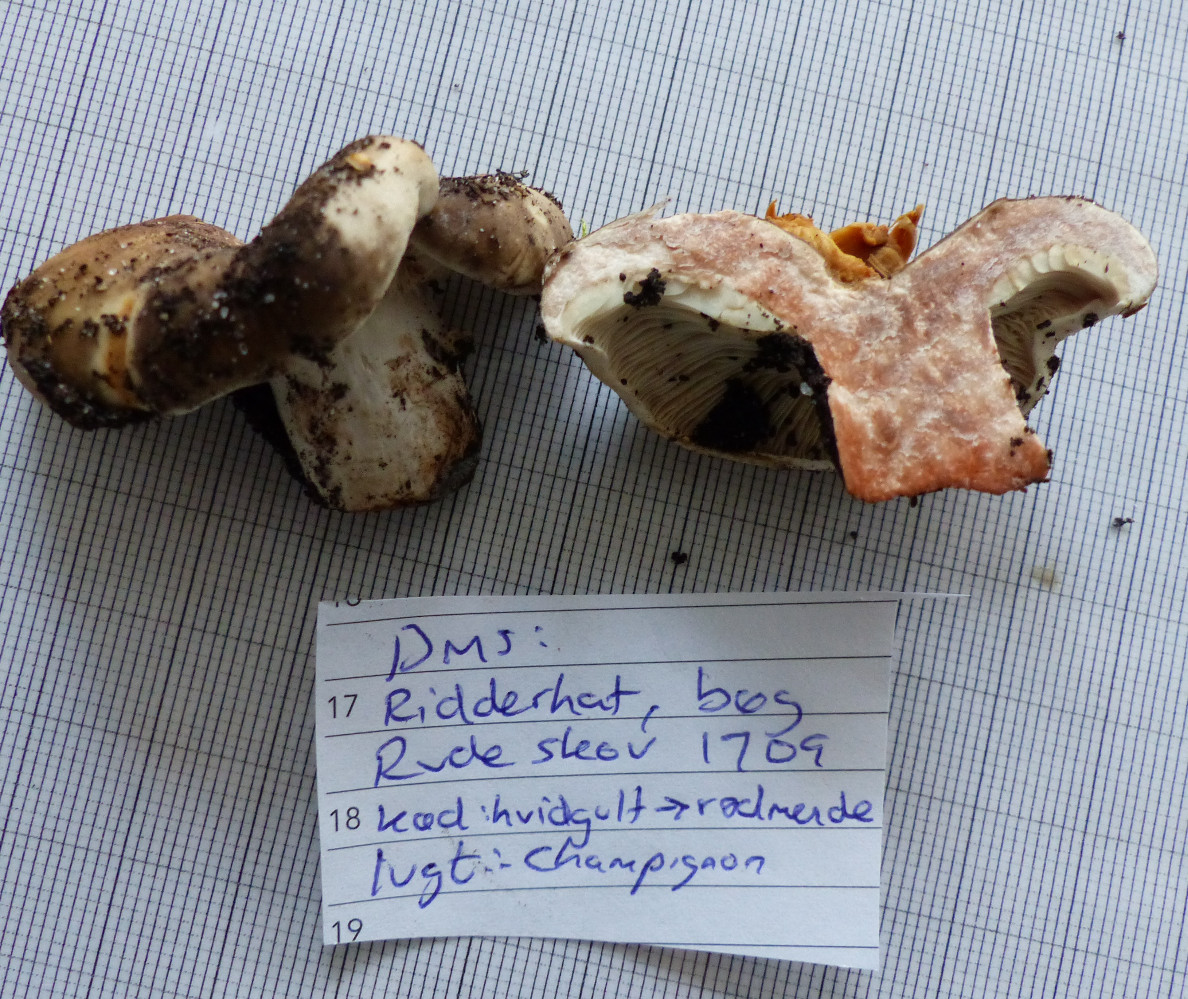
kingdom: Fungi
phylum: Basidiomycota
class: Agaricomycetes
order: Russulales
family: Russulaceae
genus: Russula
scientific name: Russula
